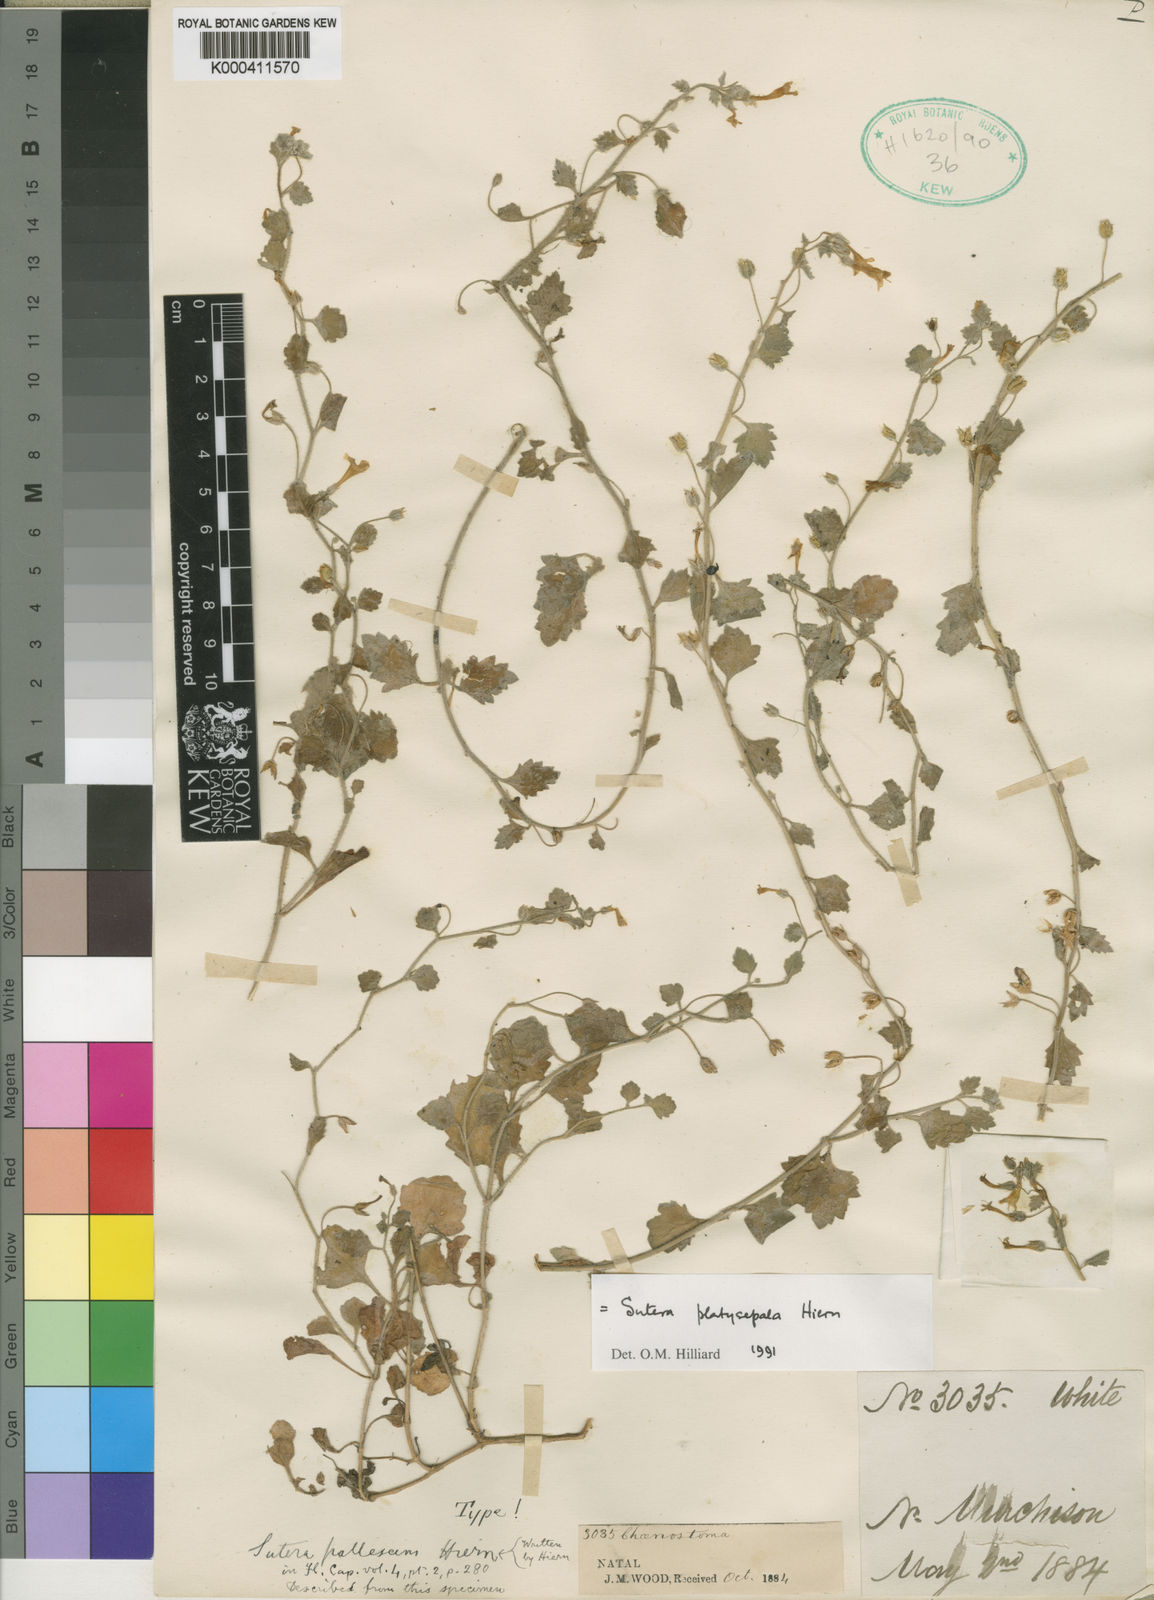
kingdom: Plantae
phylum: Tracheophyta
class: Magnoliopsida
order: Lamiales
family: Scrophulariaceae
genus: Chaenostoma
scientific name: Chaenostoma platysepalum
